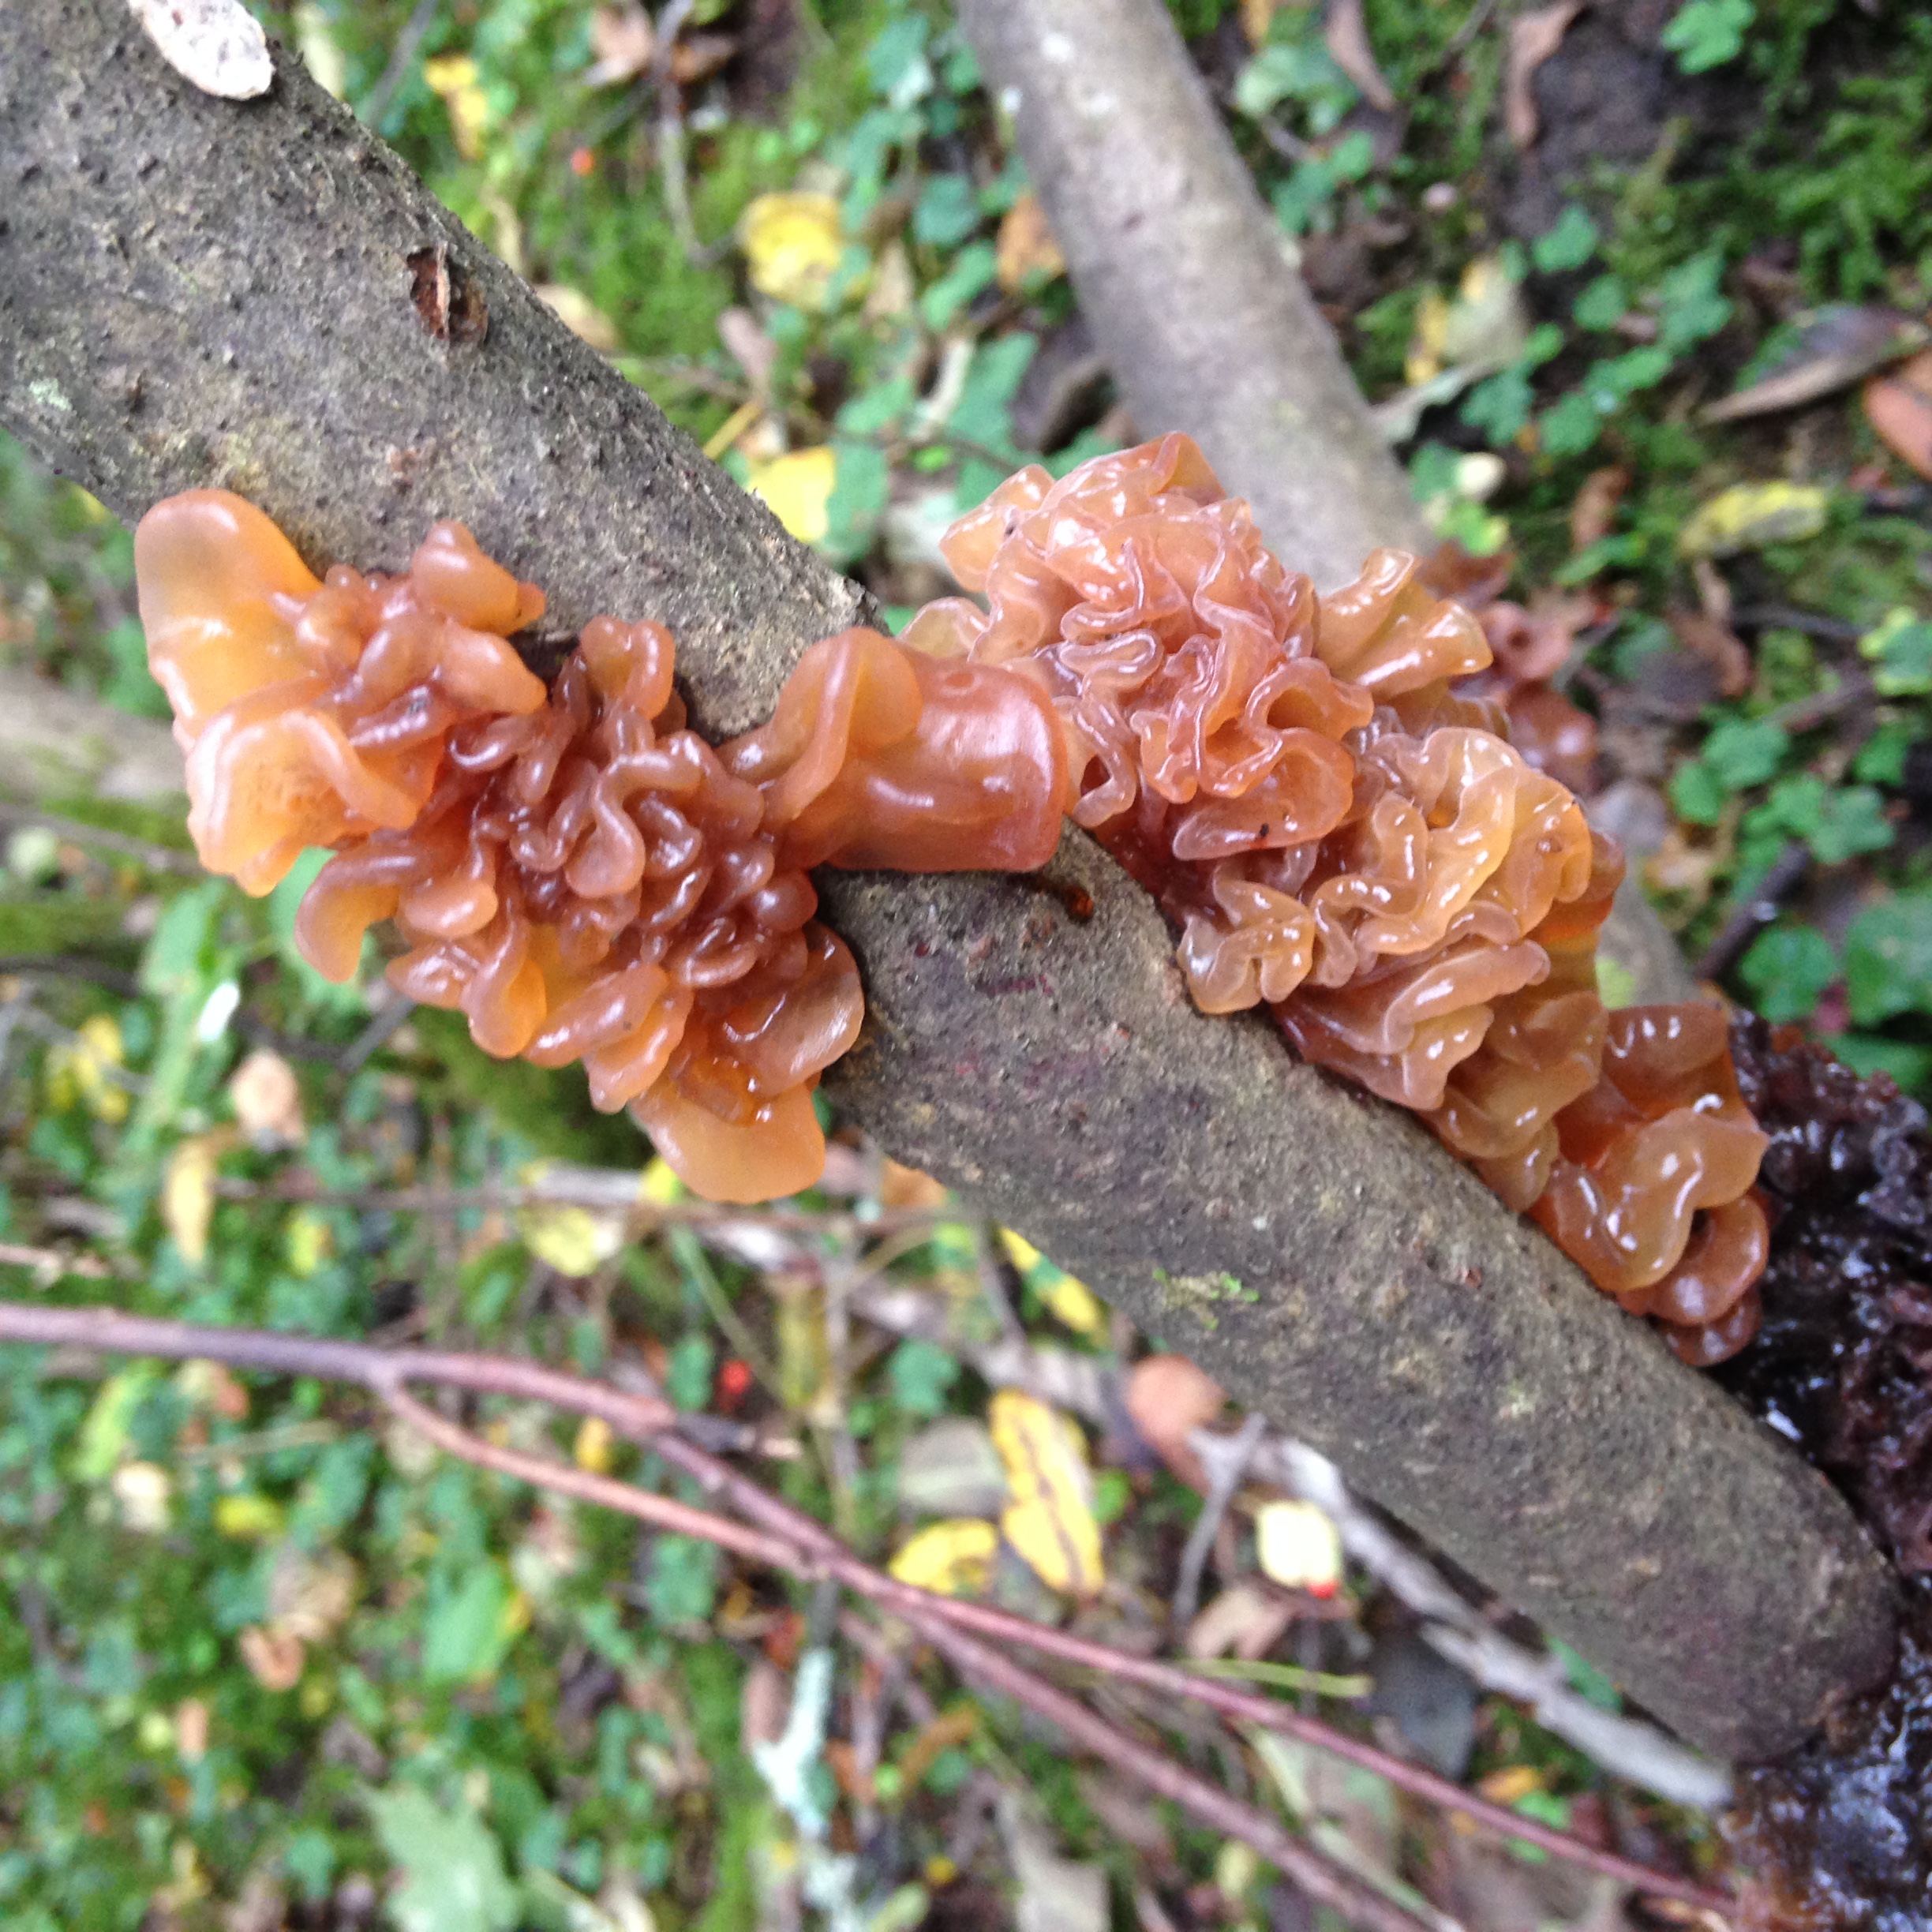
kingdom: Fungi
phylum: Basidiomycota
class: Tremellomycetes
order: Tremellales
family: Tremellaceae
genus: Phaeotremella
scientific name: Phaeotremella foliacea
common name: Leafy brain
